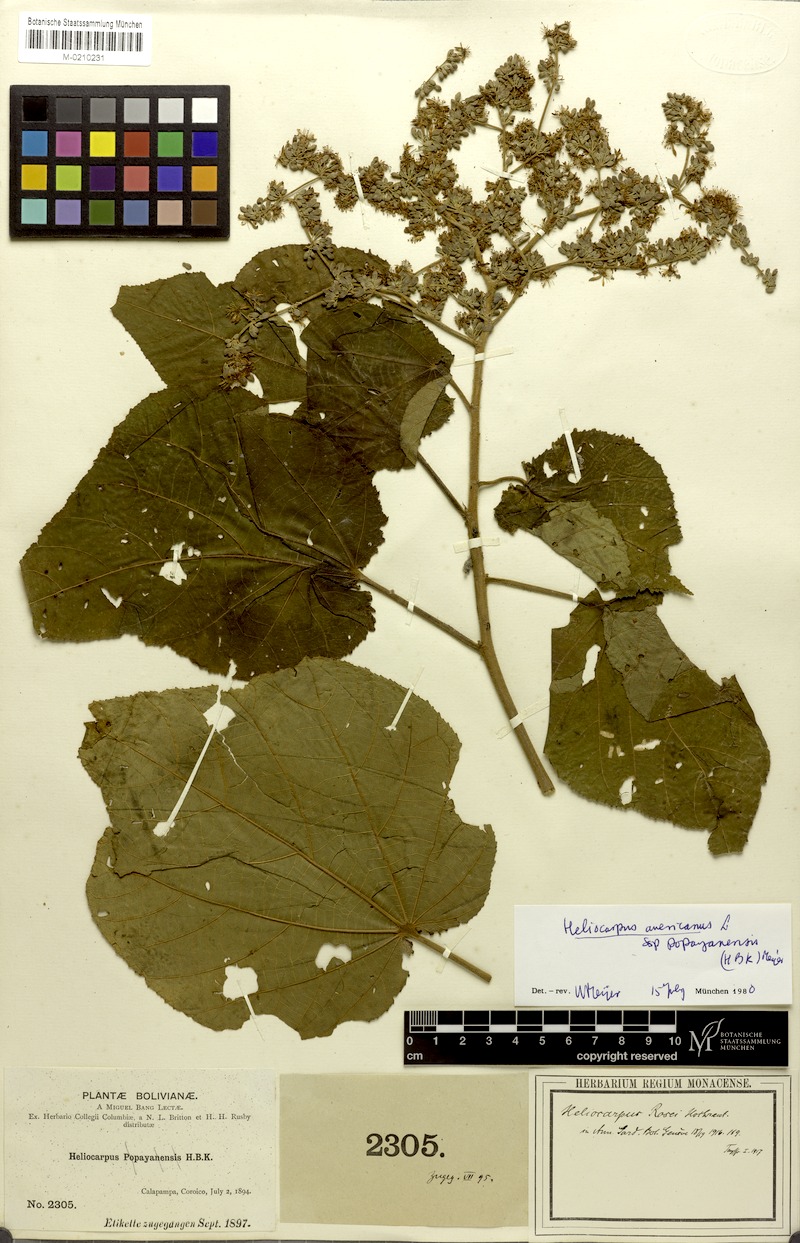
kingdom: Plantae
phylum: Tracheophyta
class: Magnoliopsida
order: Malvales
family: Malvaceae
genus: Heliocarpus
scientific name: Heliocarpus americanus
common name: White moho
